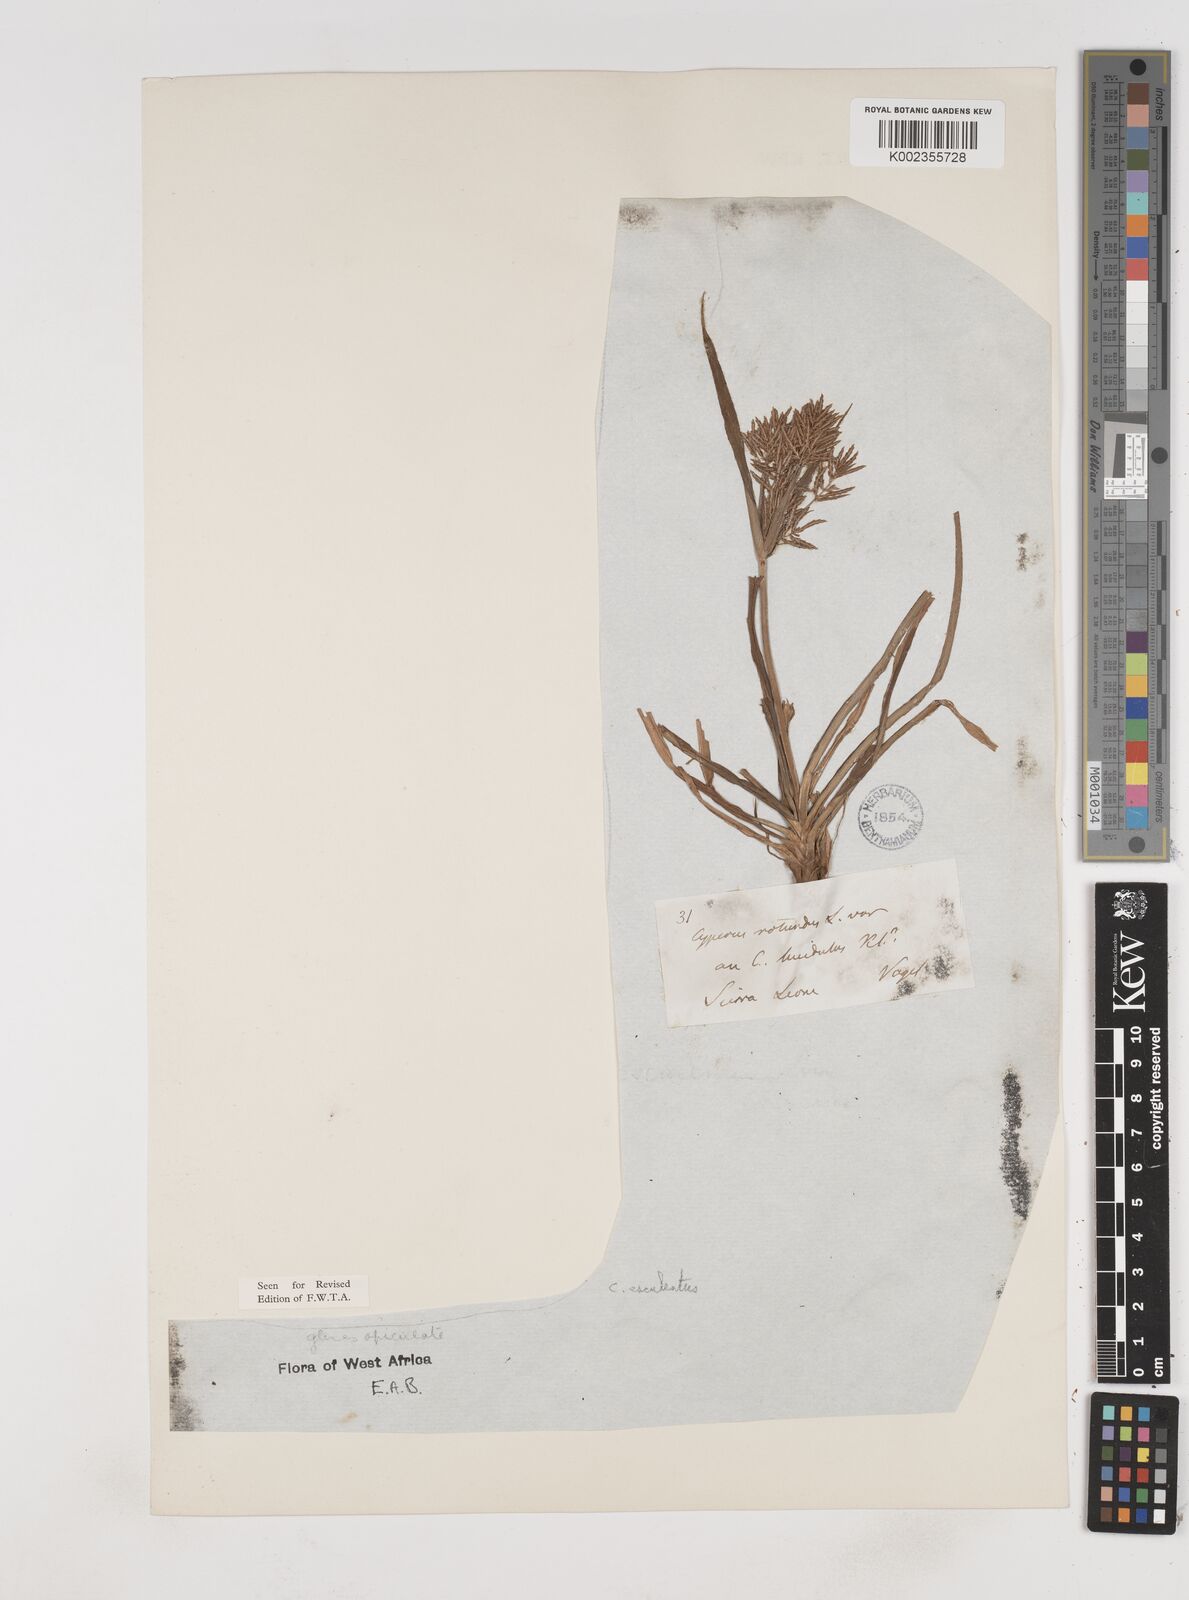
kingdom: Plantae
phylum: Tracheophyta
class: Liliopsida
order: Poales
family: Cyperaceae
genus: Cyperus
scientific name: Cyperus esculentus
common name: Yellow nutsedge
